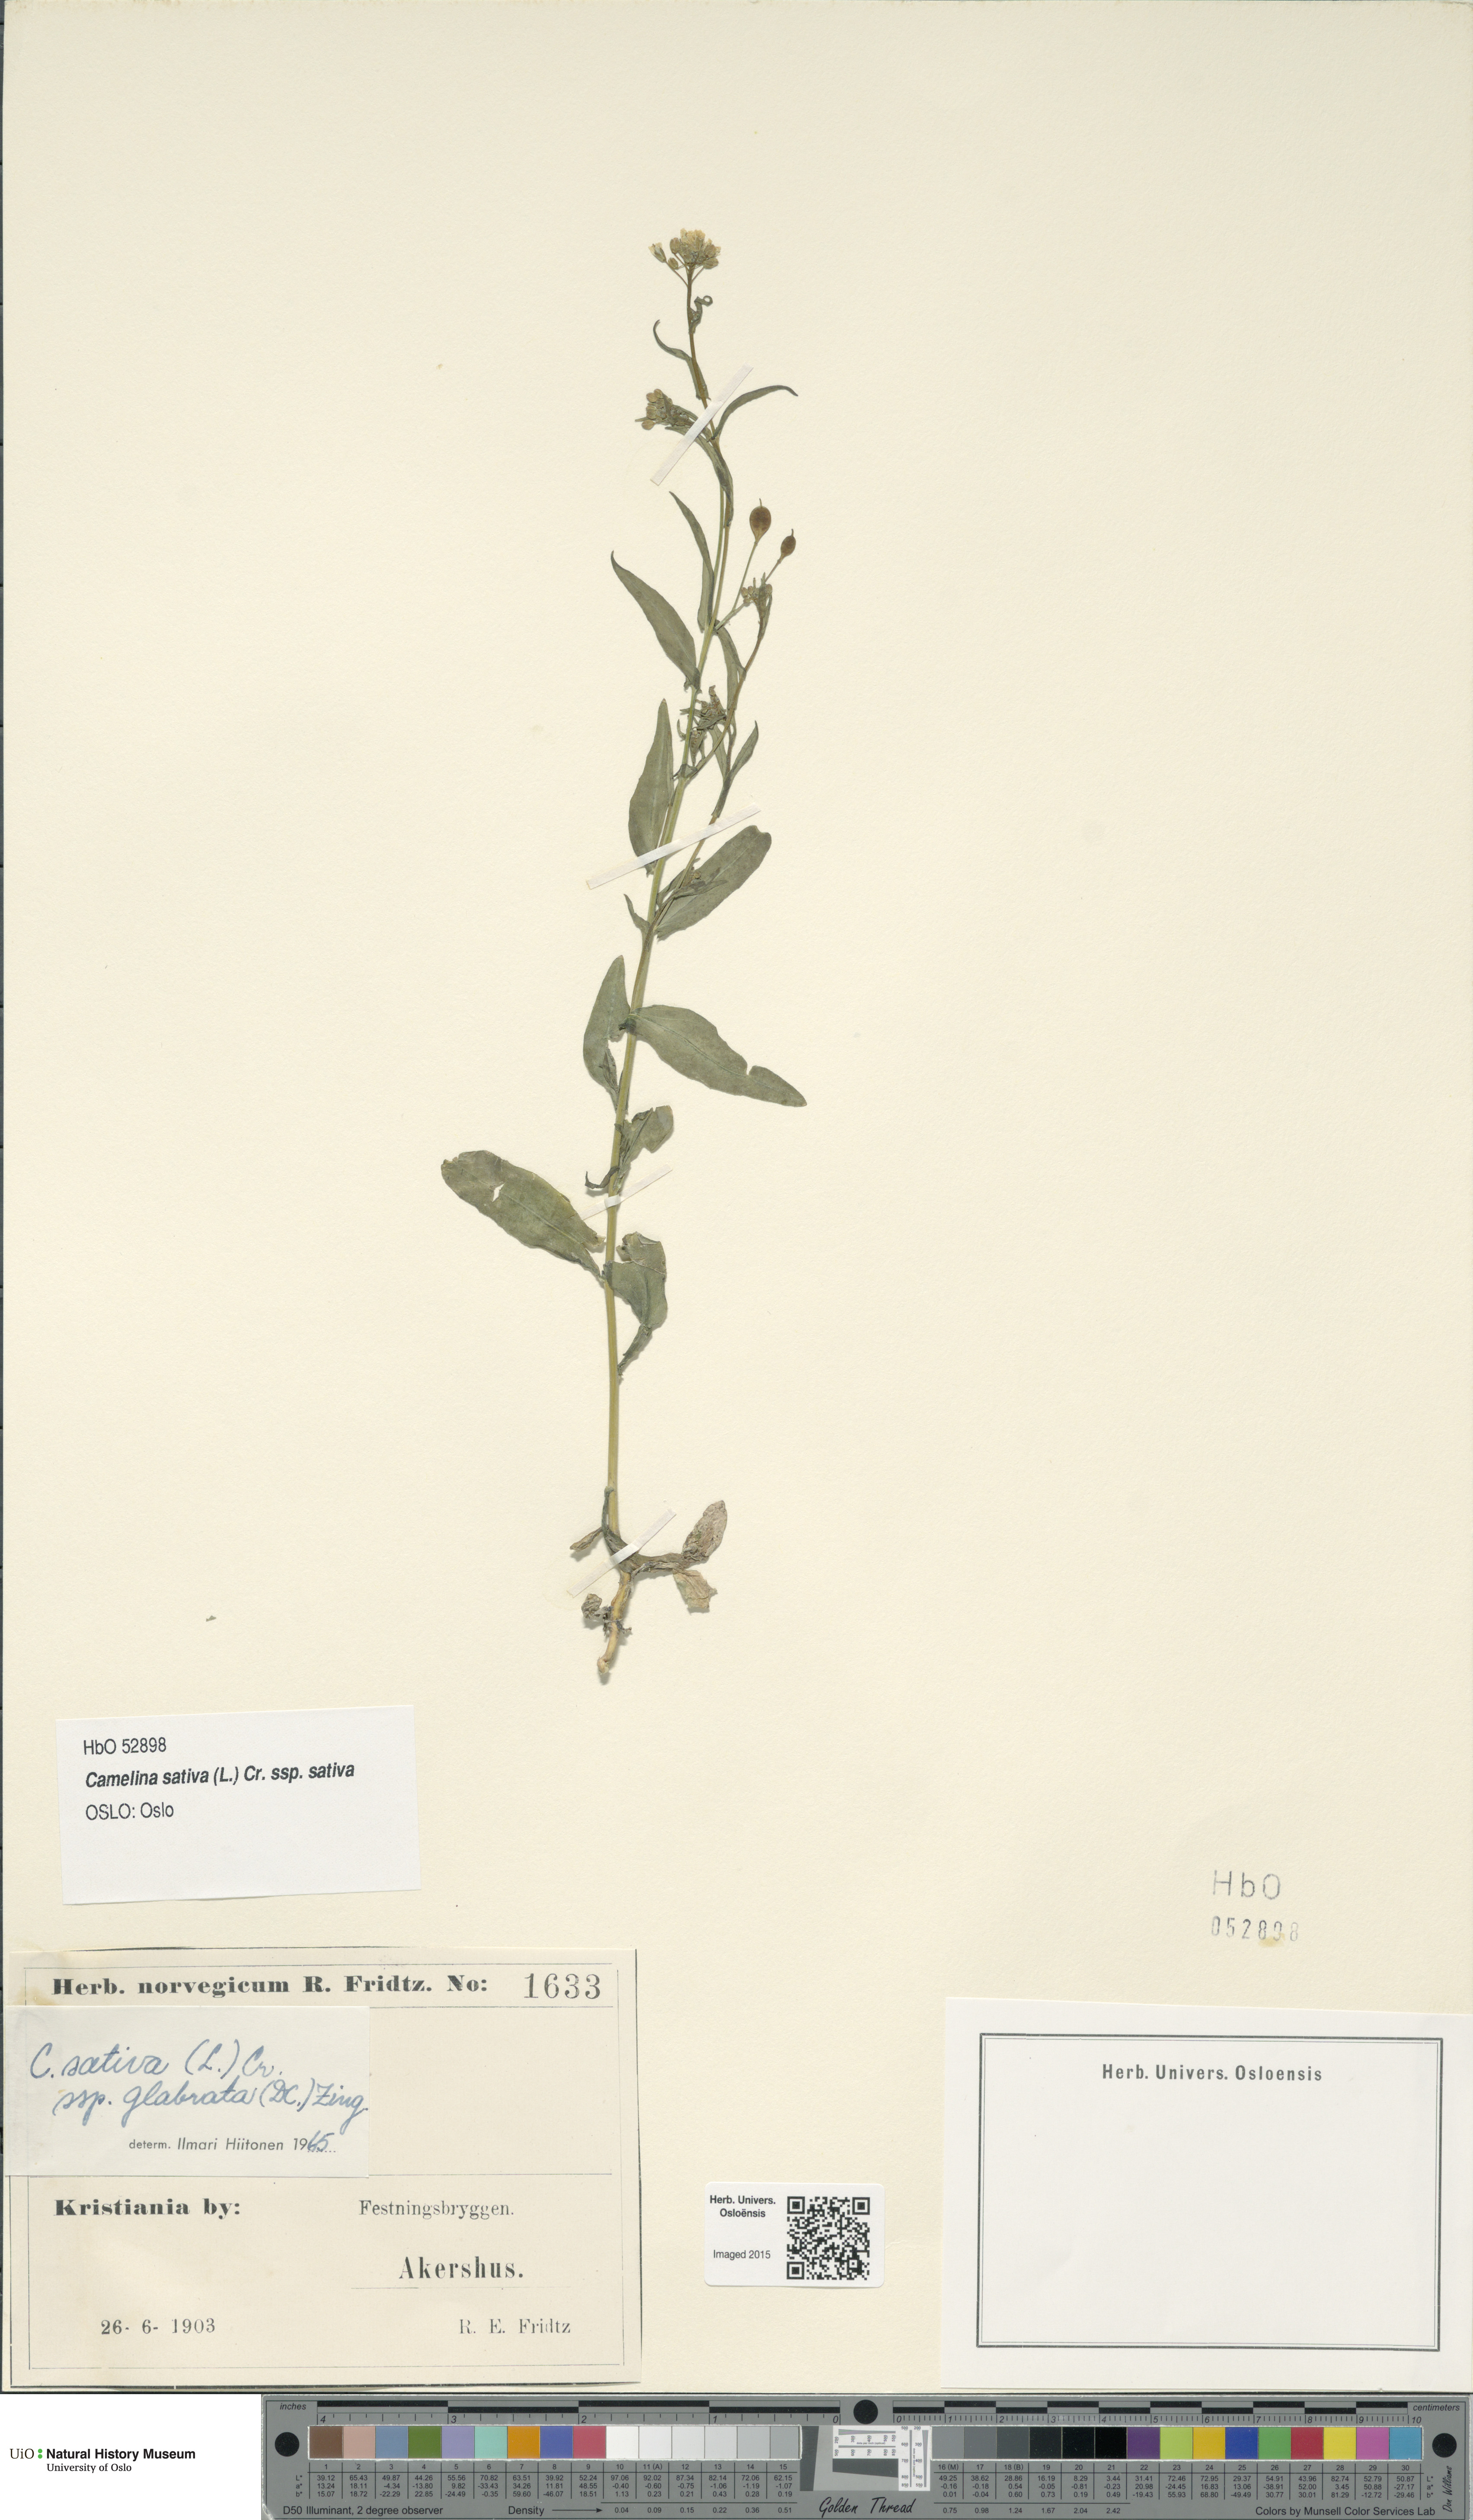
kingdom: Plantae
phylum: Tracheophyta
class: Magnoliopsida
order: Brassicales
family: Brassicaceae
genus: Camelina
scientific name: Camelina sativa
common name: Gold-of-pleasure
